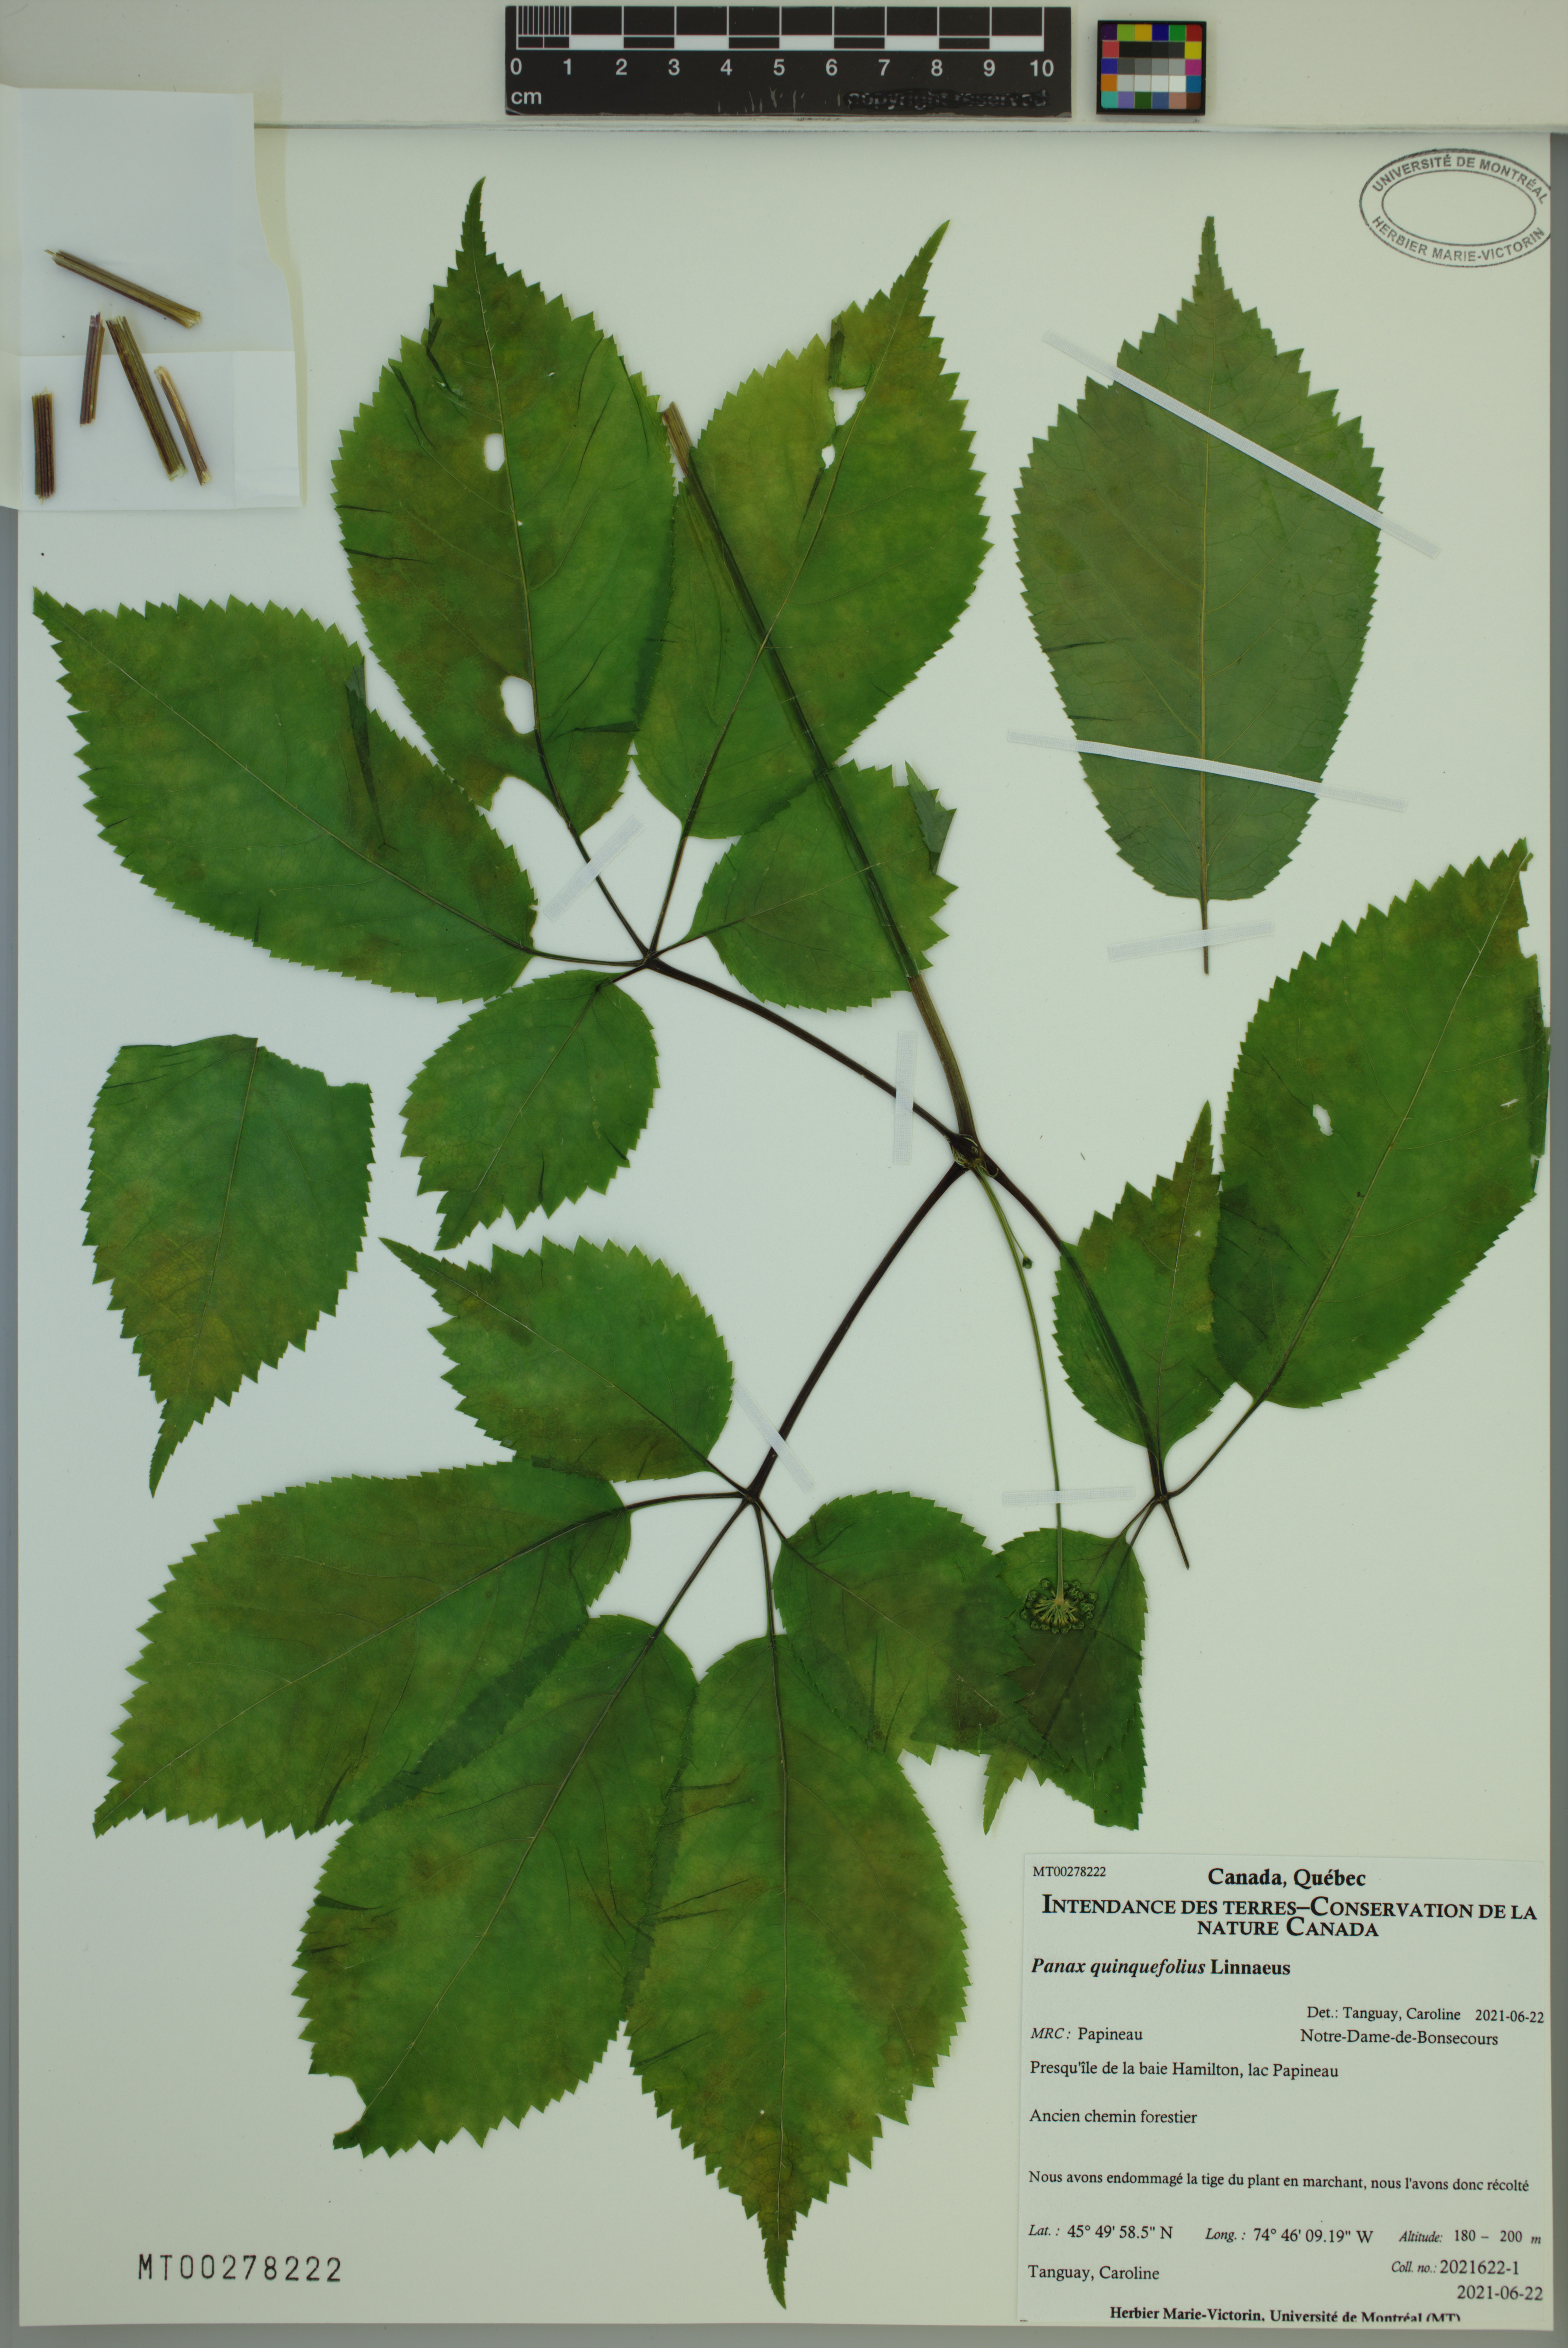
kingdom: Plantae
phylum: Tracheophyta
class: Magnoliopsida
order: Apiales
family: Araliaceae
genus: Panax
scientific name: Panax quinquefolius
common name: American ginseng
